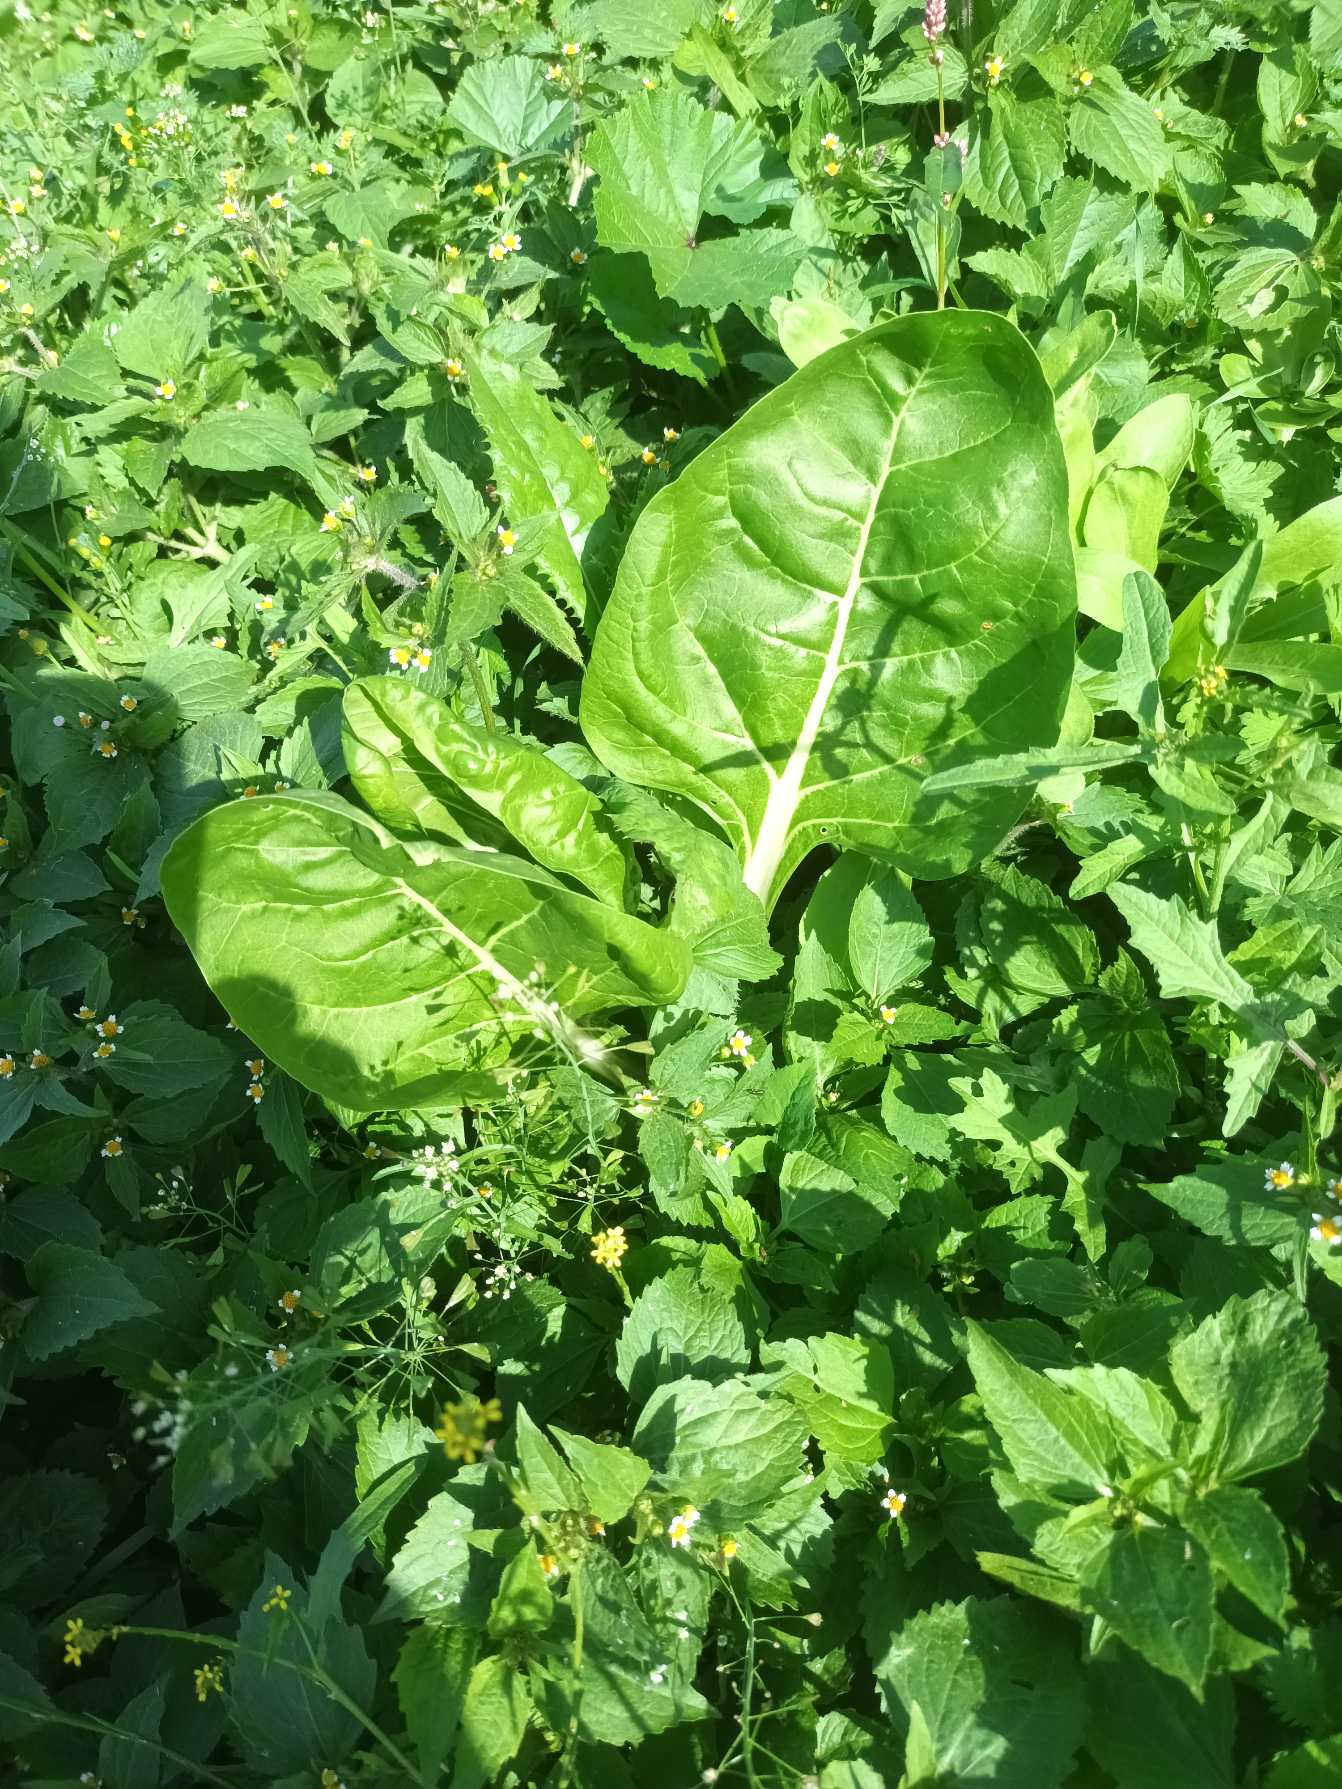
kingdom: Plantae
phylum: Tracheophyta
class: Magnoliopsida
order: Caryophyllales
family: Amaranthaceae
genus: Beta
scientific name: Beta vulgaris
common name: Foder-bede
